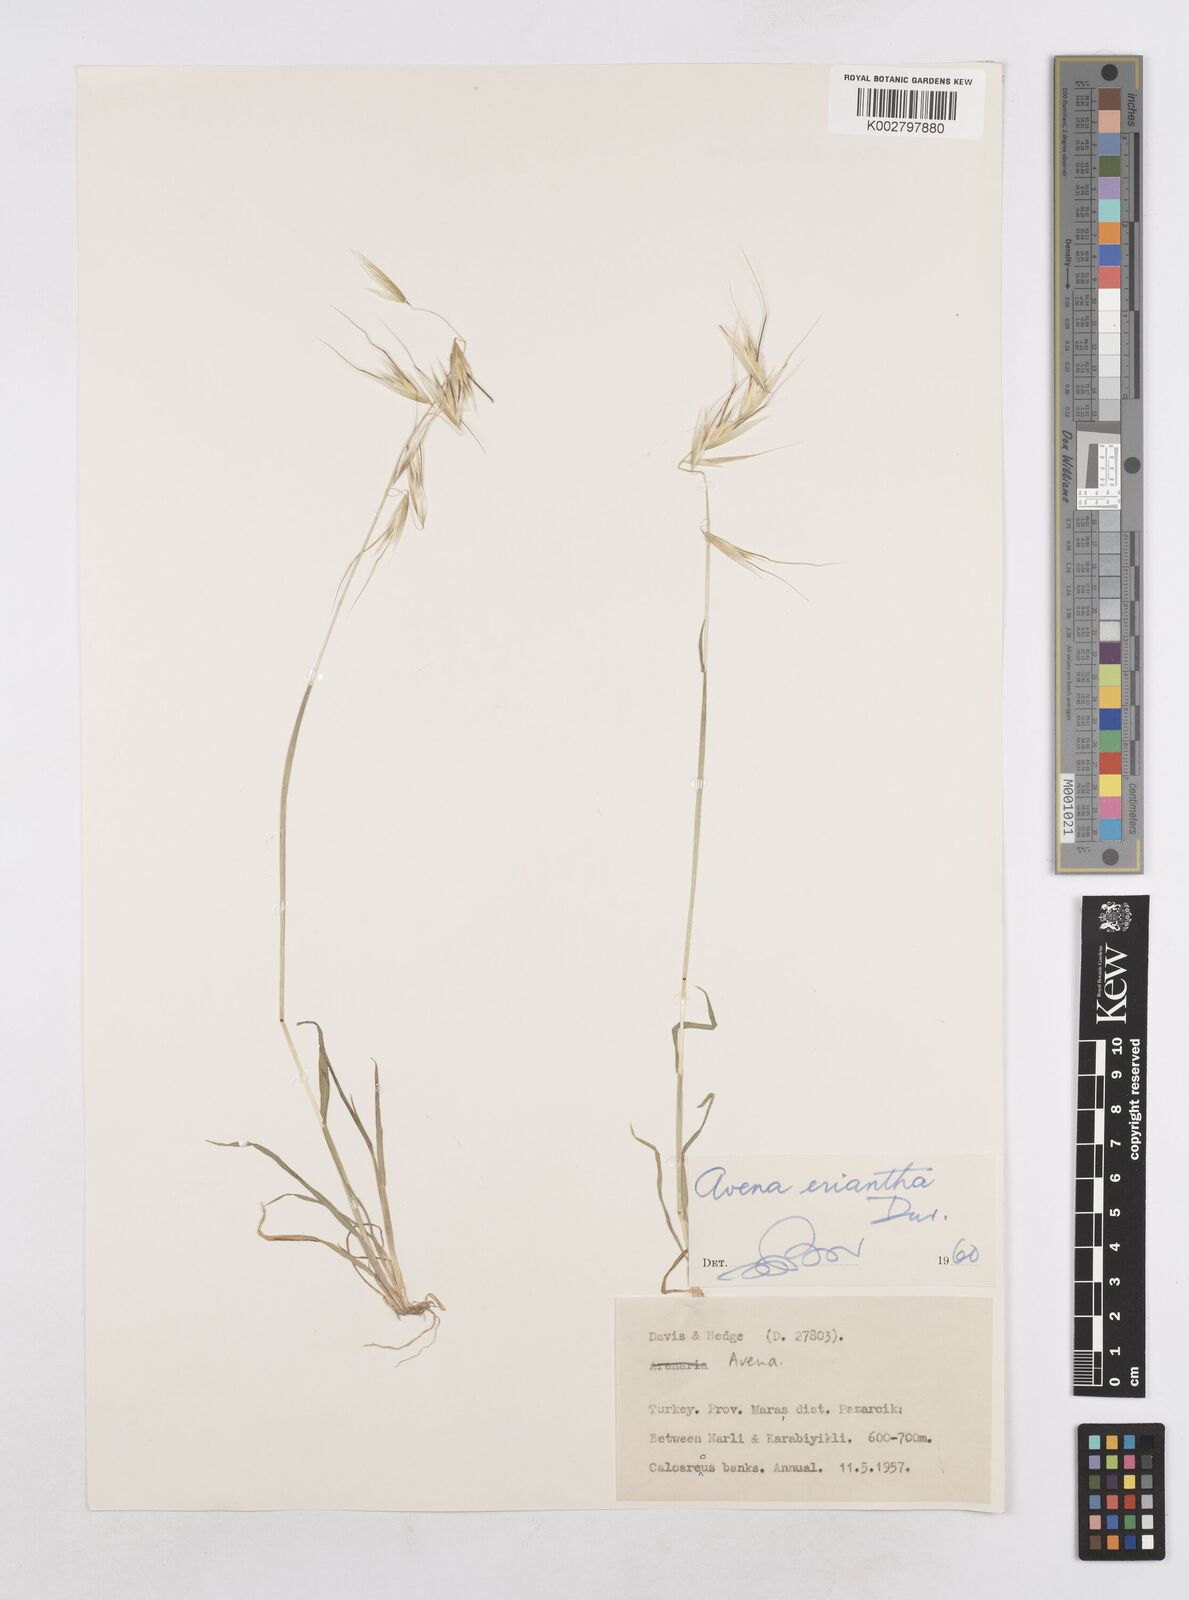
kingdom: Plantae
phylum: Tracheophyta
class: Liliopsida
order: Poales
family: Poaceae
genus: Avena
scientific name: Avena eriantha
